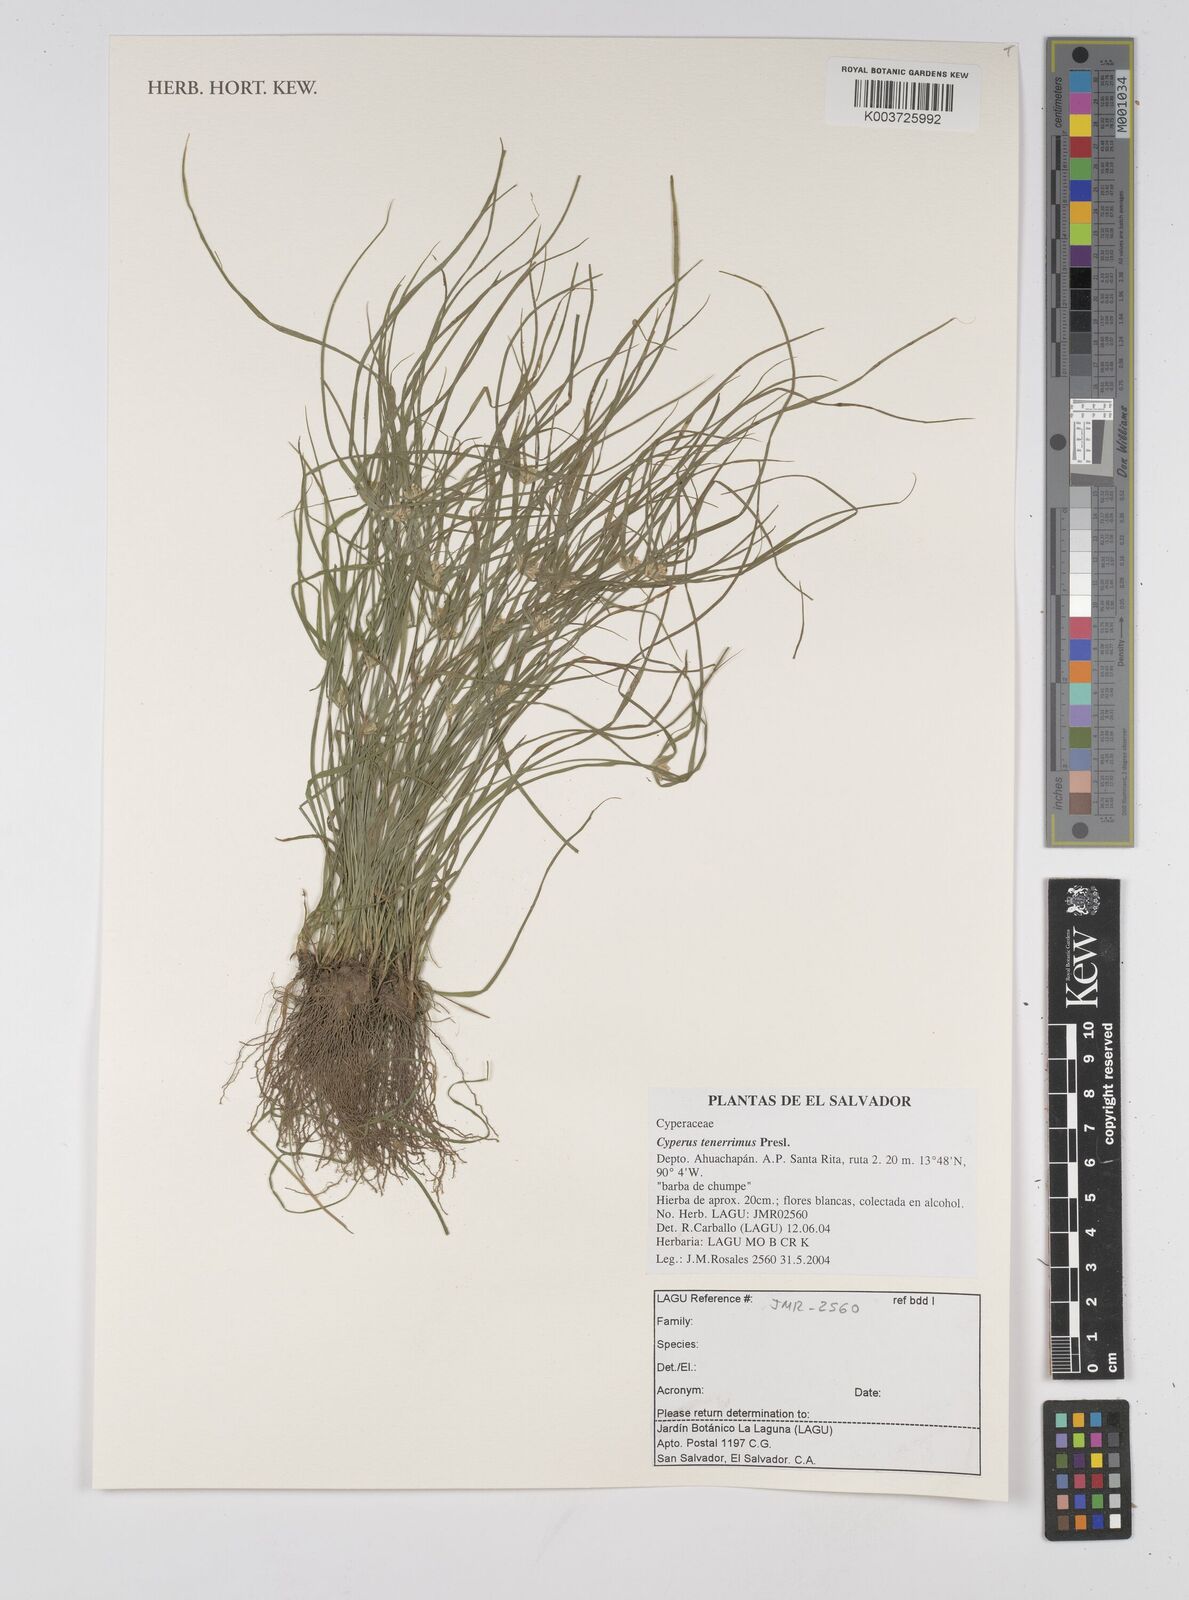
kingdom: Plantae
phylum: Tracheophyta
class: Liliopsida
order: Poales
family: Cyperaceae
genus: Cyperus
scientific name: Cyperus tenerrimus
